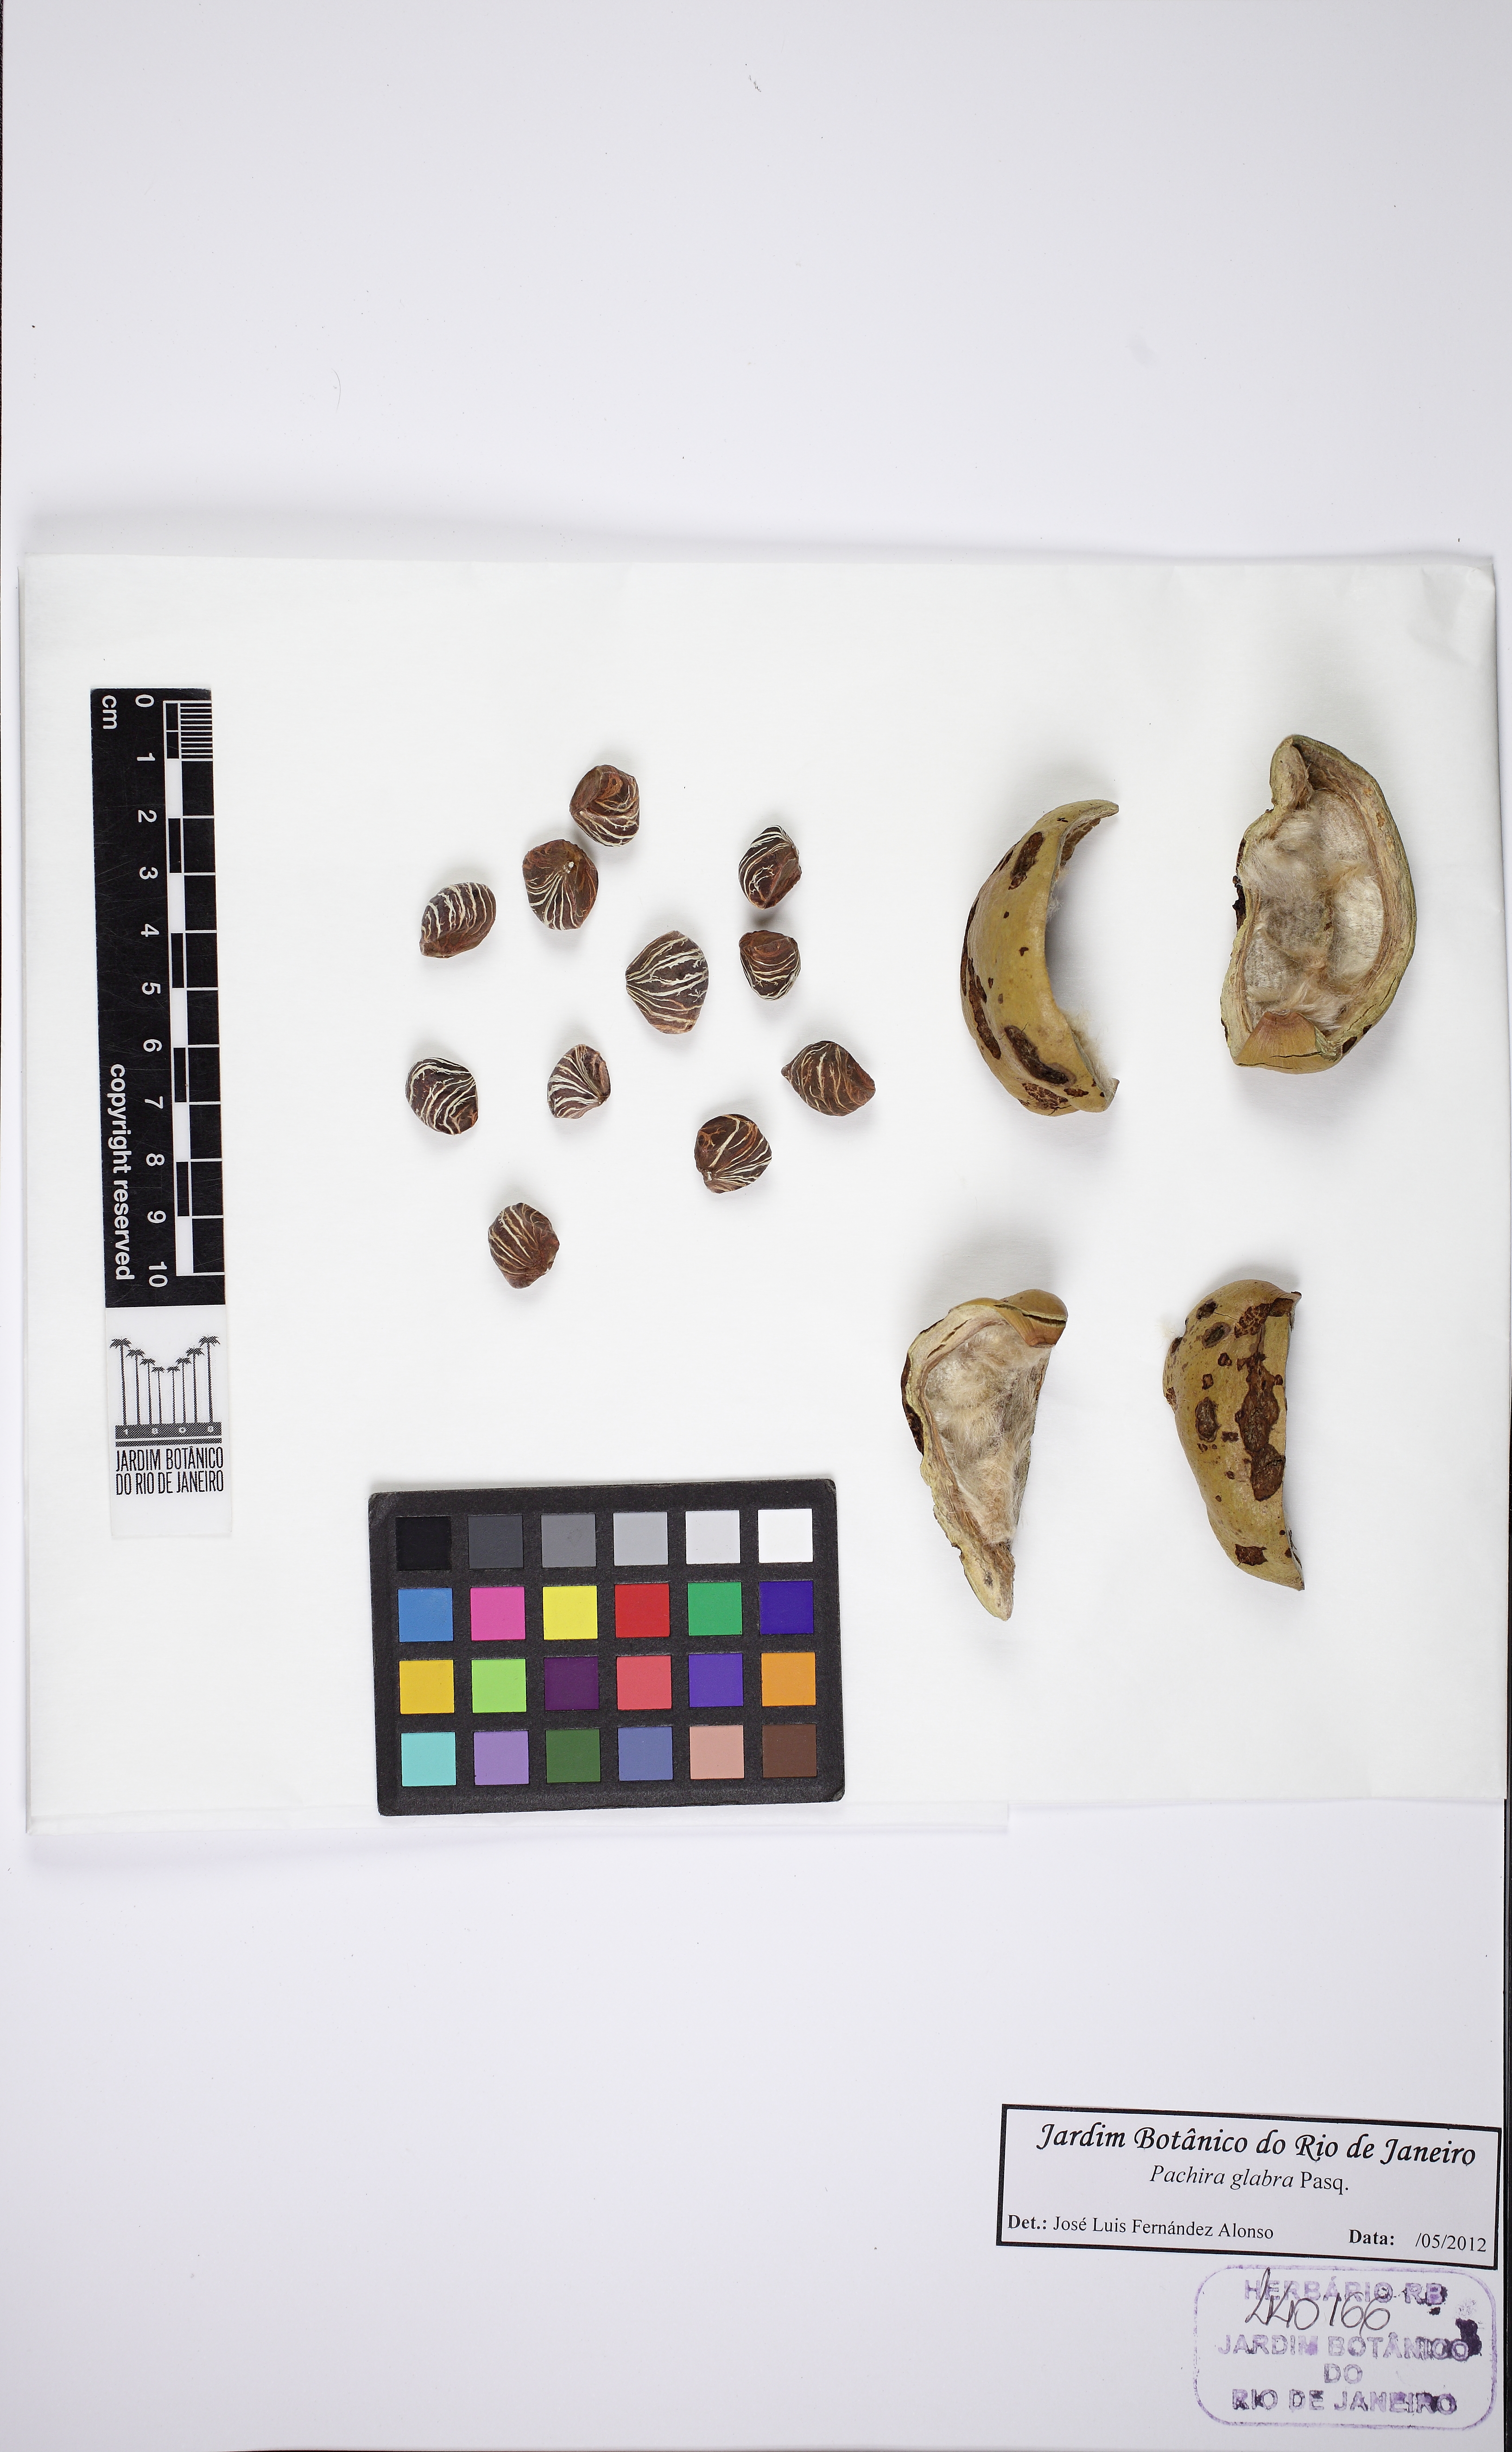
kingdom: Plantae
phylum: Tracheophyta
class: Magnoliopsida
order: Malvales
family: Malvaceae
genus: Pachira
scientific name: Pachira glabra
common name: Moneytree
